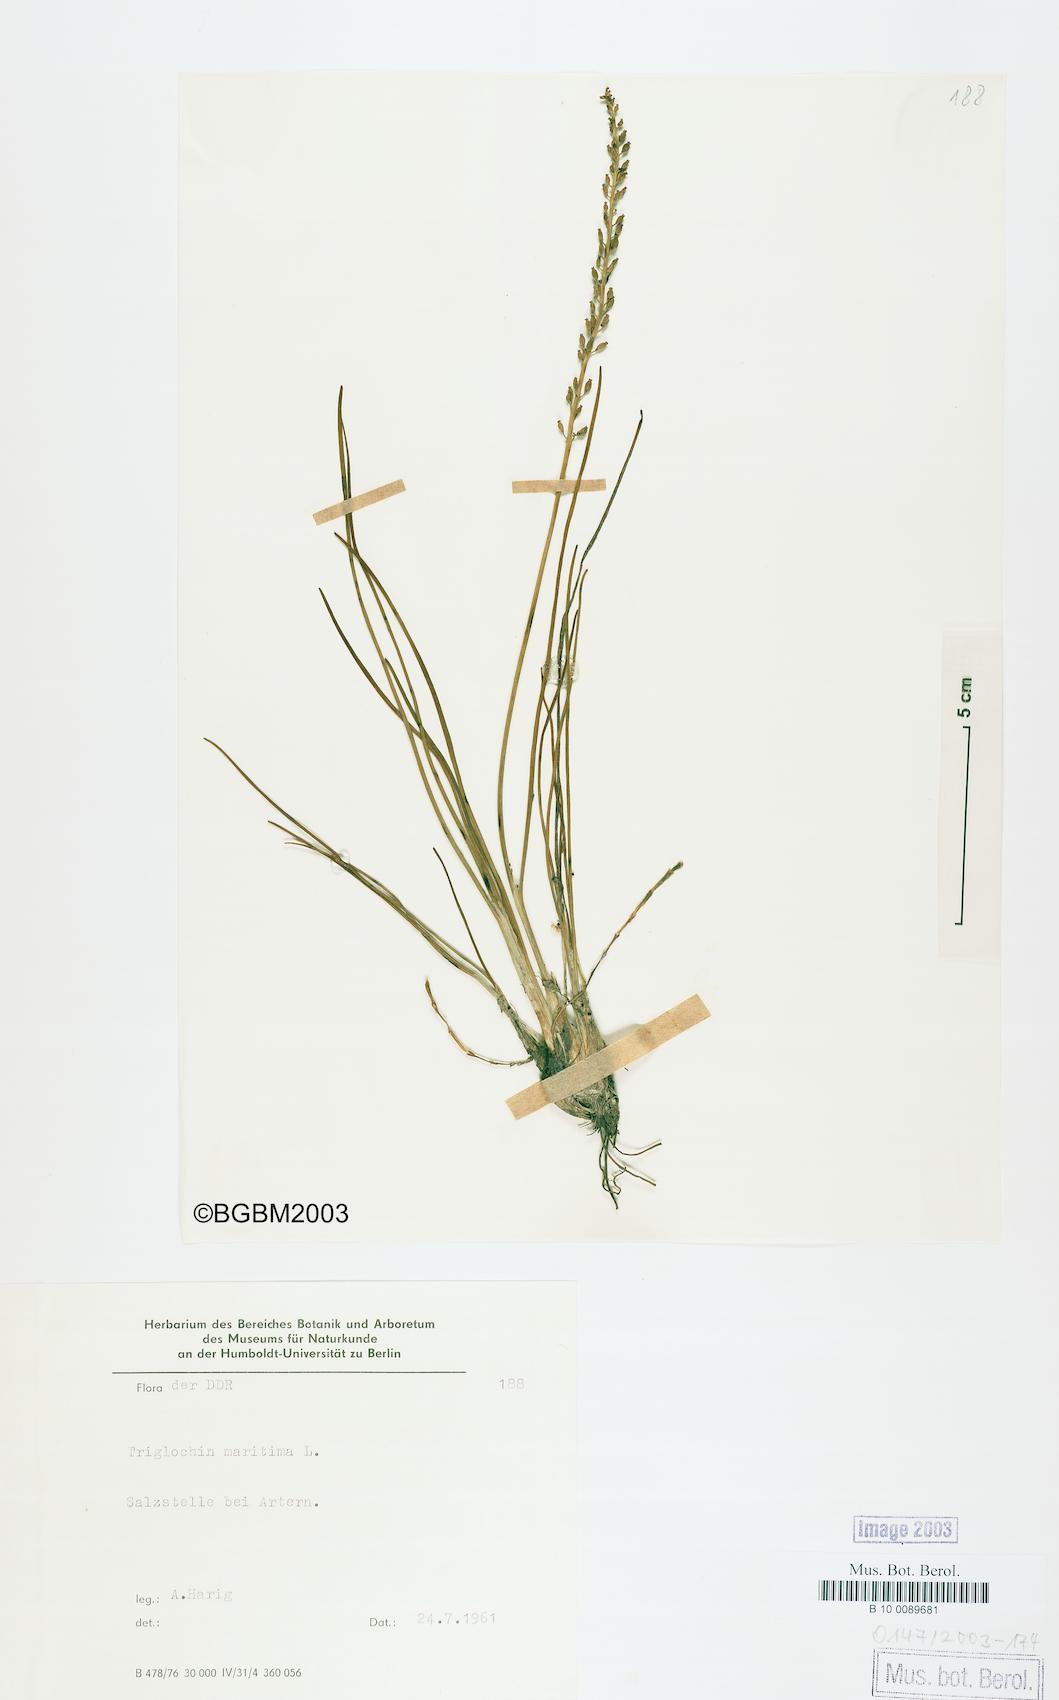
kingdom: Plantae
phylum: Tracheophyta
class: Liliopsida
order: Alismatales
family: Juncaginaceae
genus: Triglochin
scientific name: Triglochin maritima
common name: Sea arrowgrass
